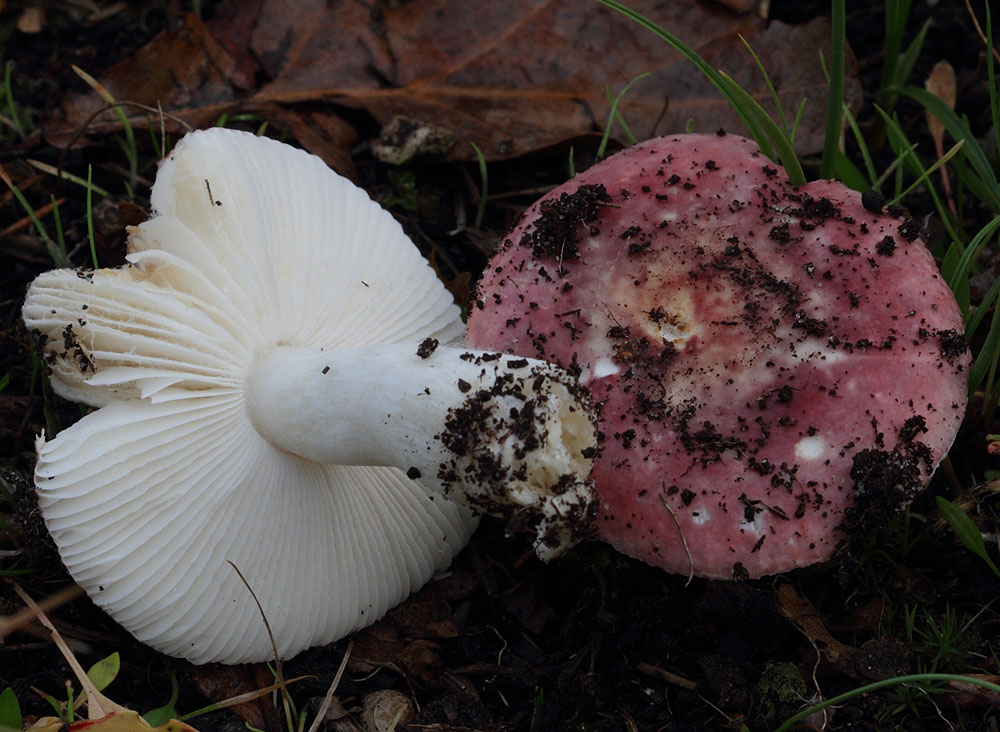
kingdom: Fungi
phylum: Basidiomycota
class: Agaricomycetes
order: Russulales
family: Russulaceae
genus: Russula
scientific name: Russula fragilis
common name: Fragile brittlegill
